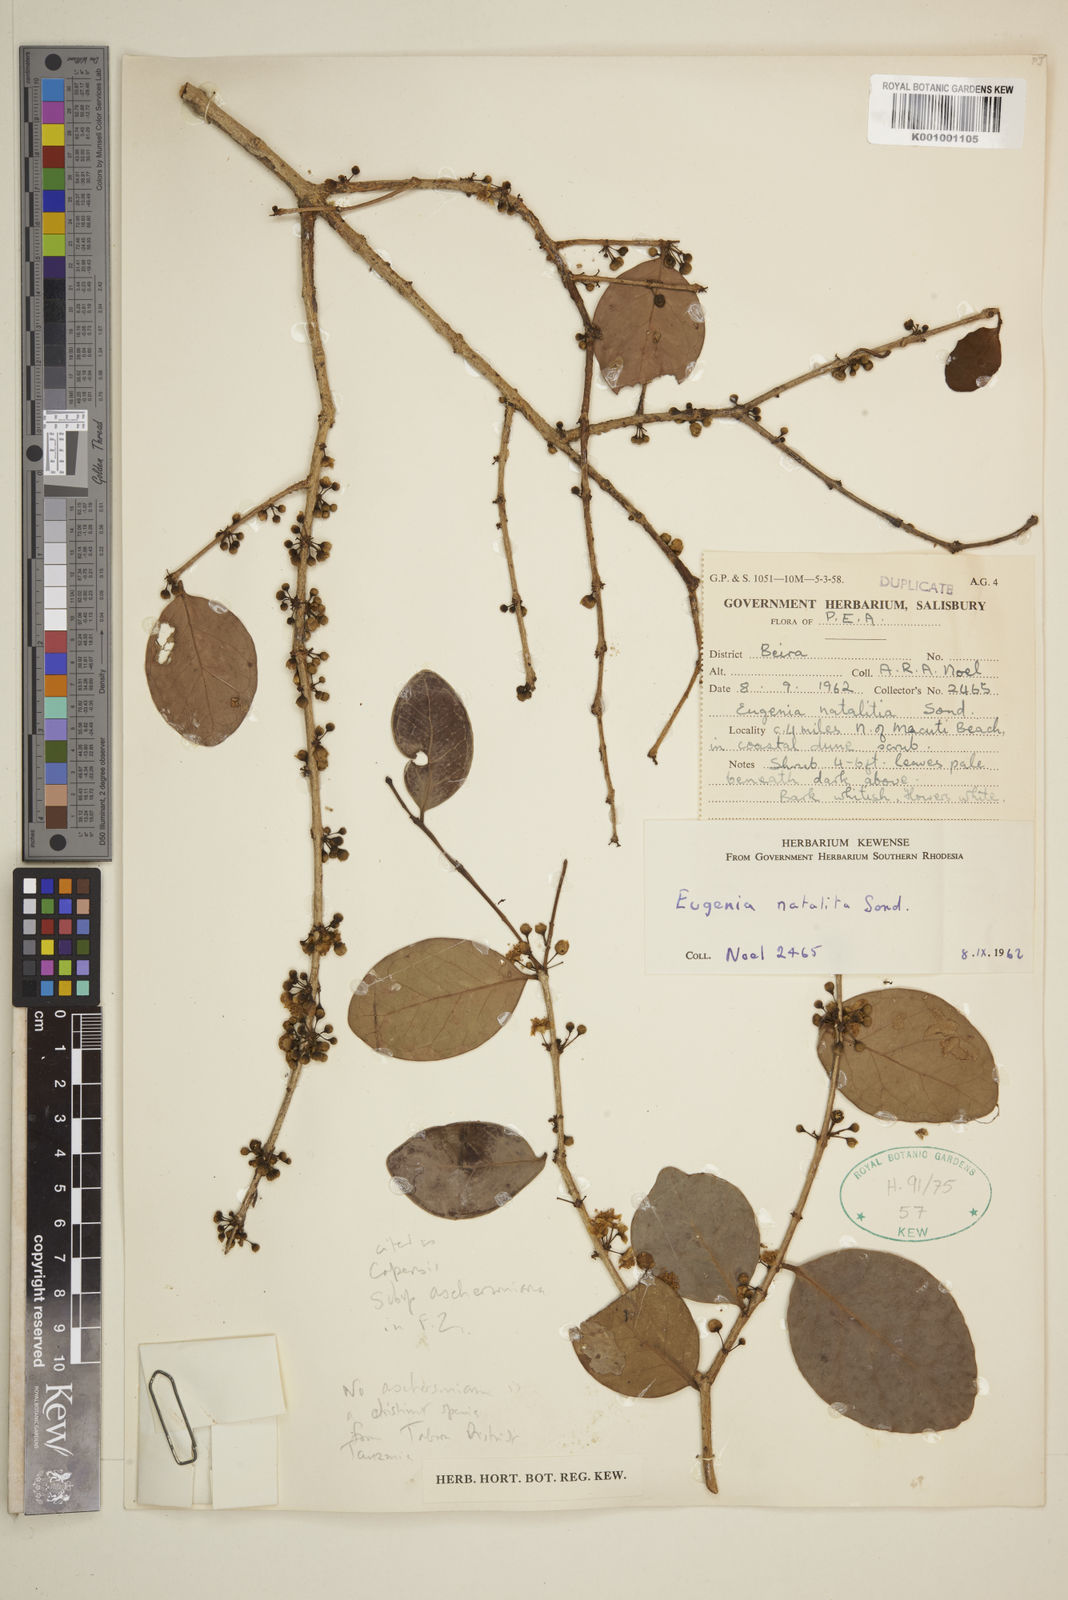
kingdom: Plantae
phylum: Tracheophyta
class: Magnoliopsida
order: Myrtales
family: Myrtaceae
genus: Eugenia
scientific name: Eugenia aschersoniana
